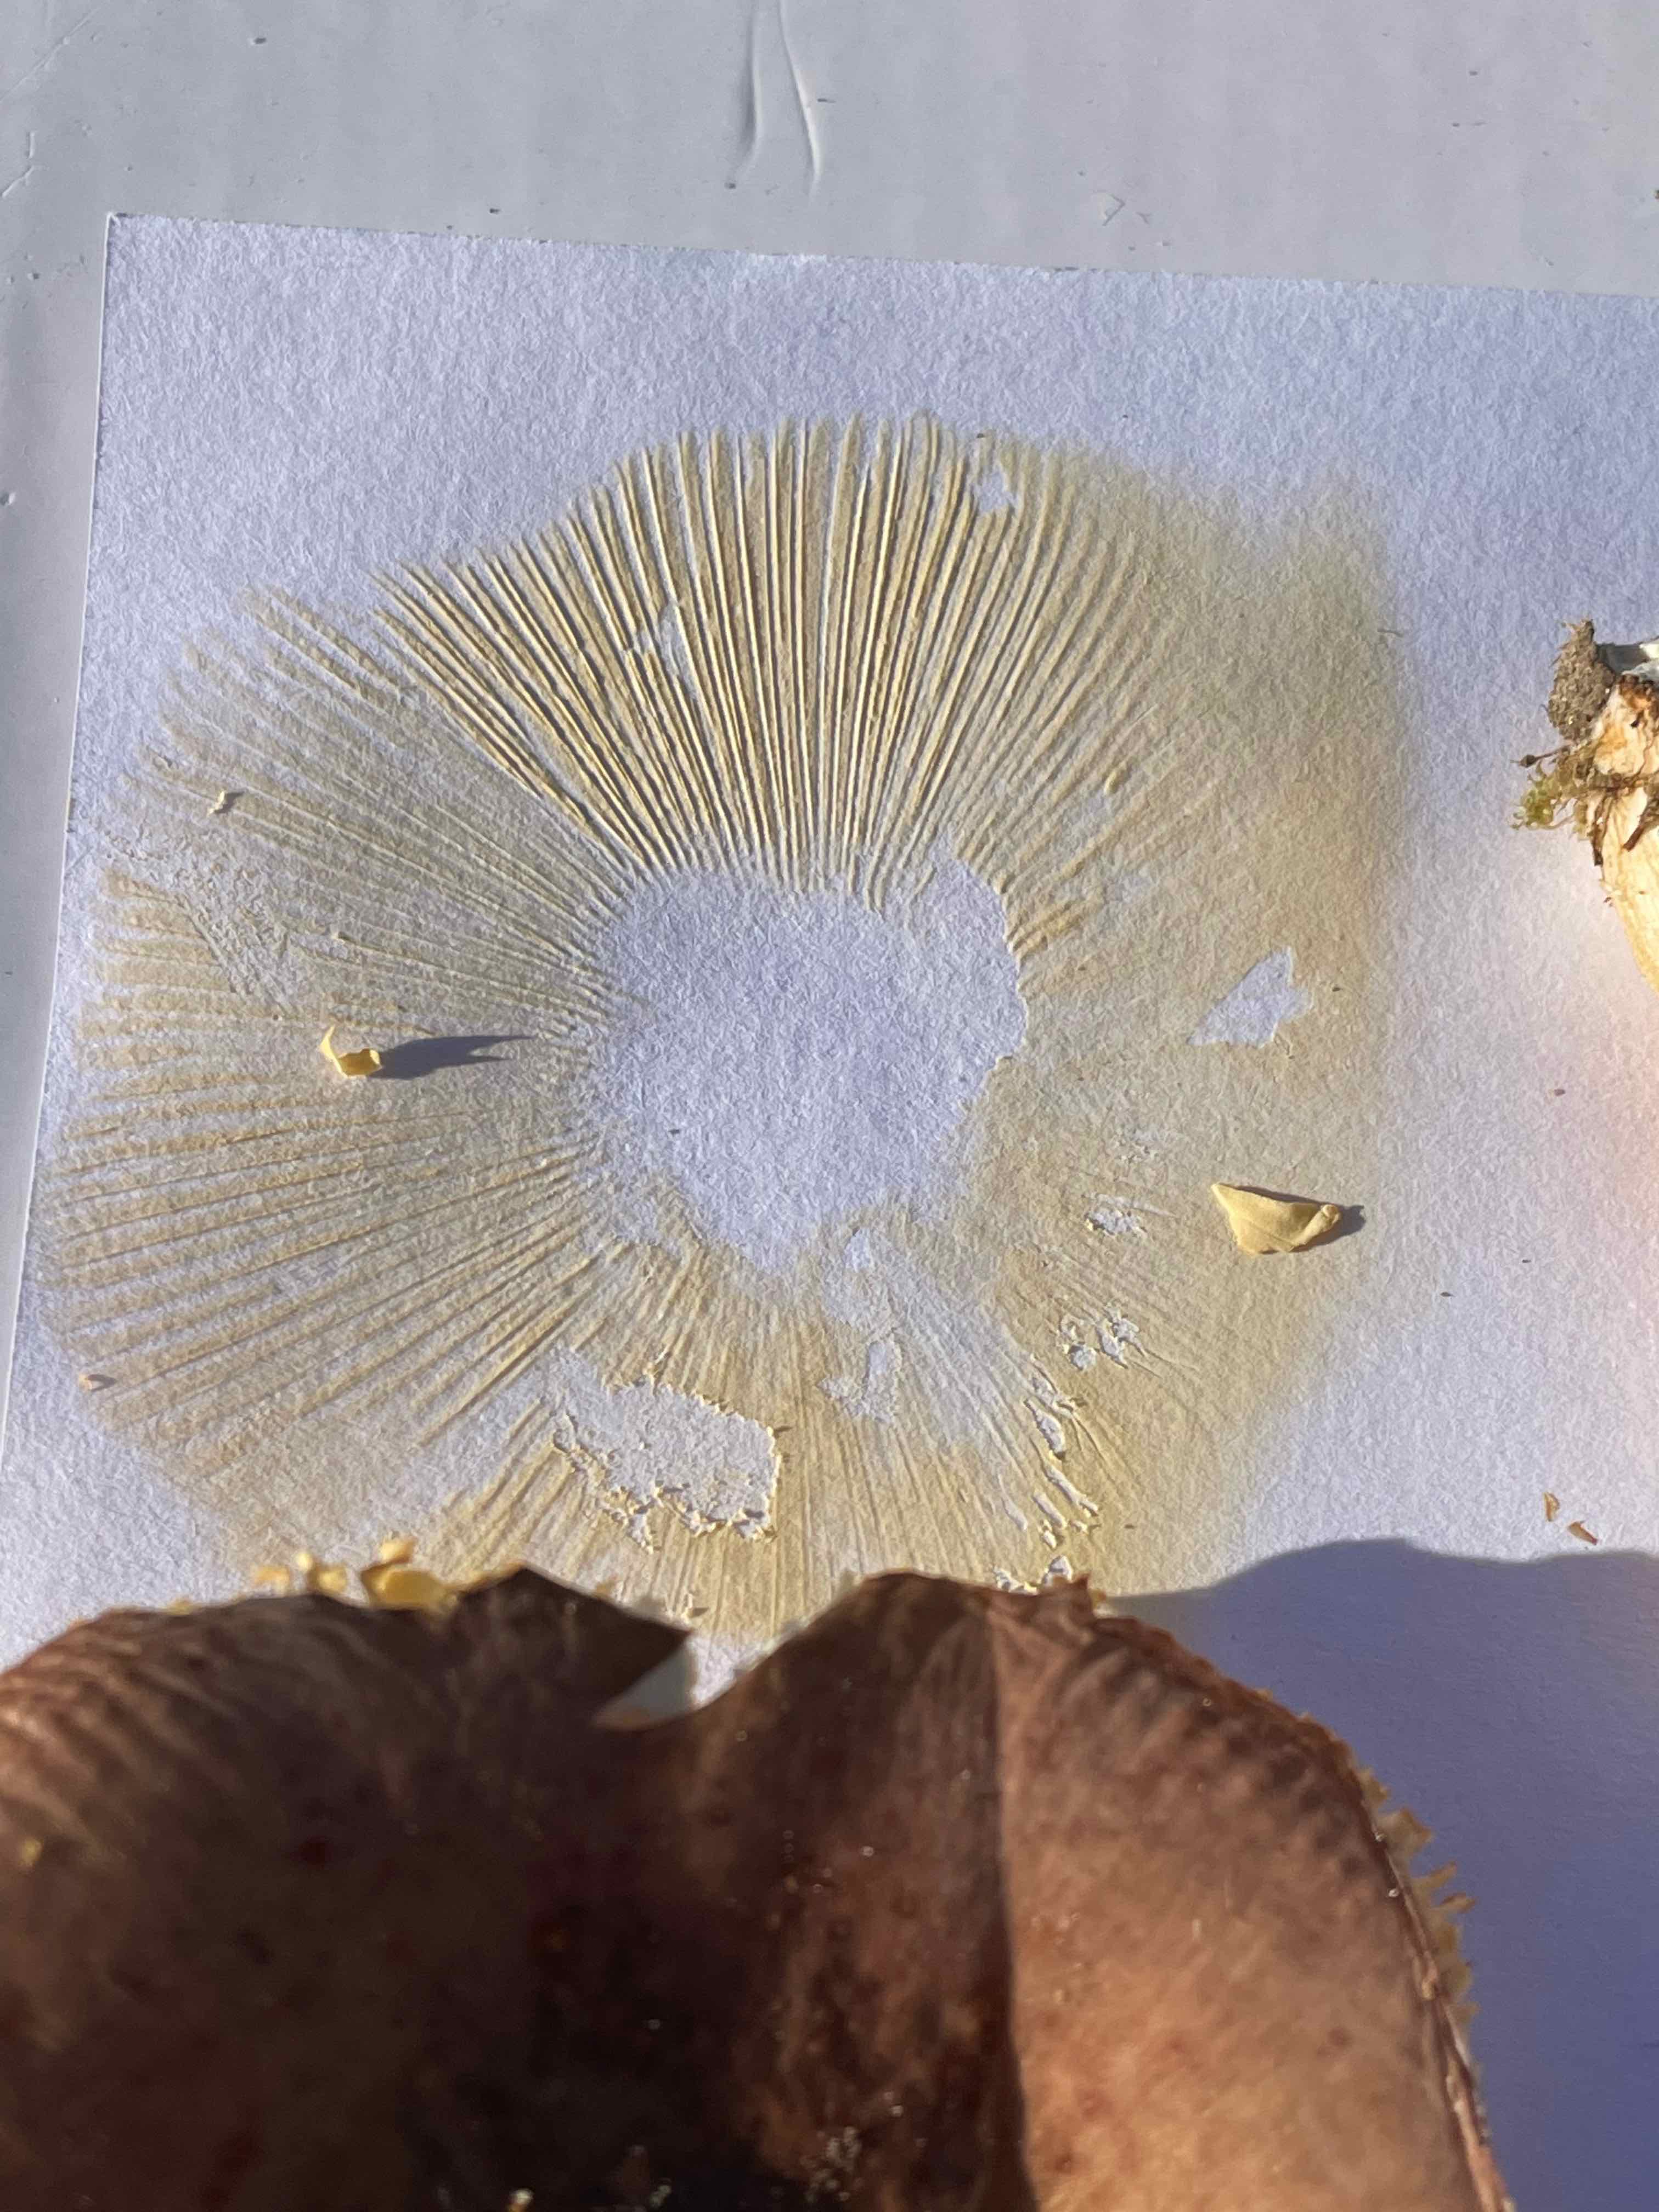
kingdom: Fungi
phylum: Basidiomycota
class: Agaricomycetes
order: Russulales
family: Russulaceae
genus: Russula
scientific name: Russula
